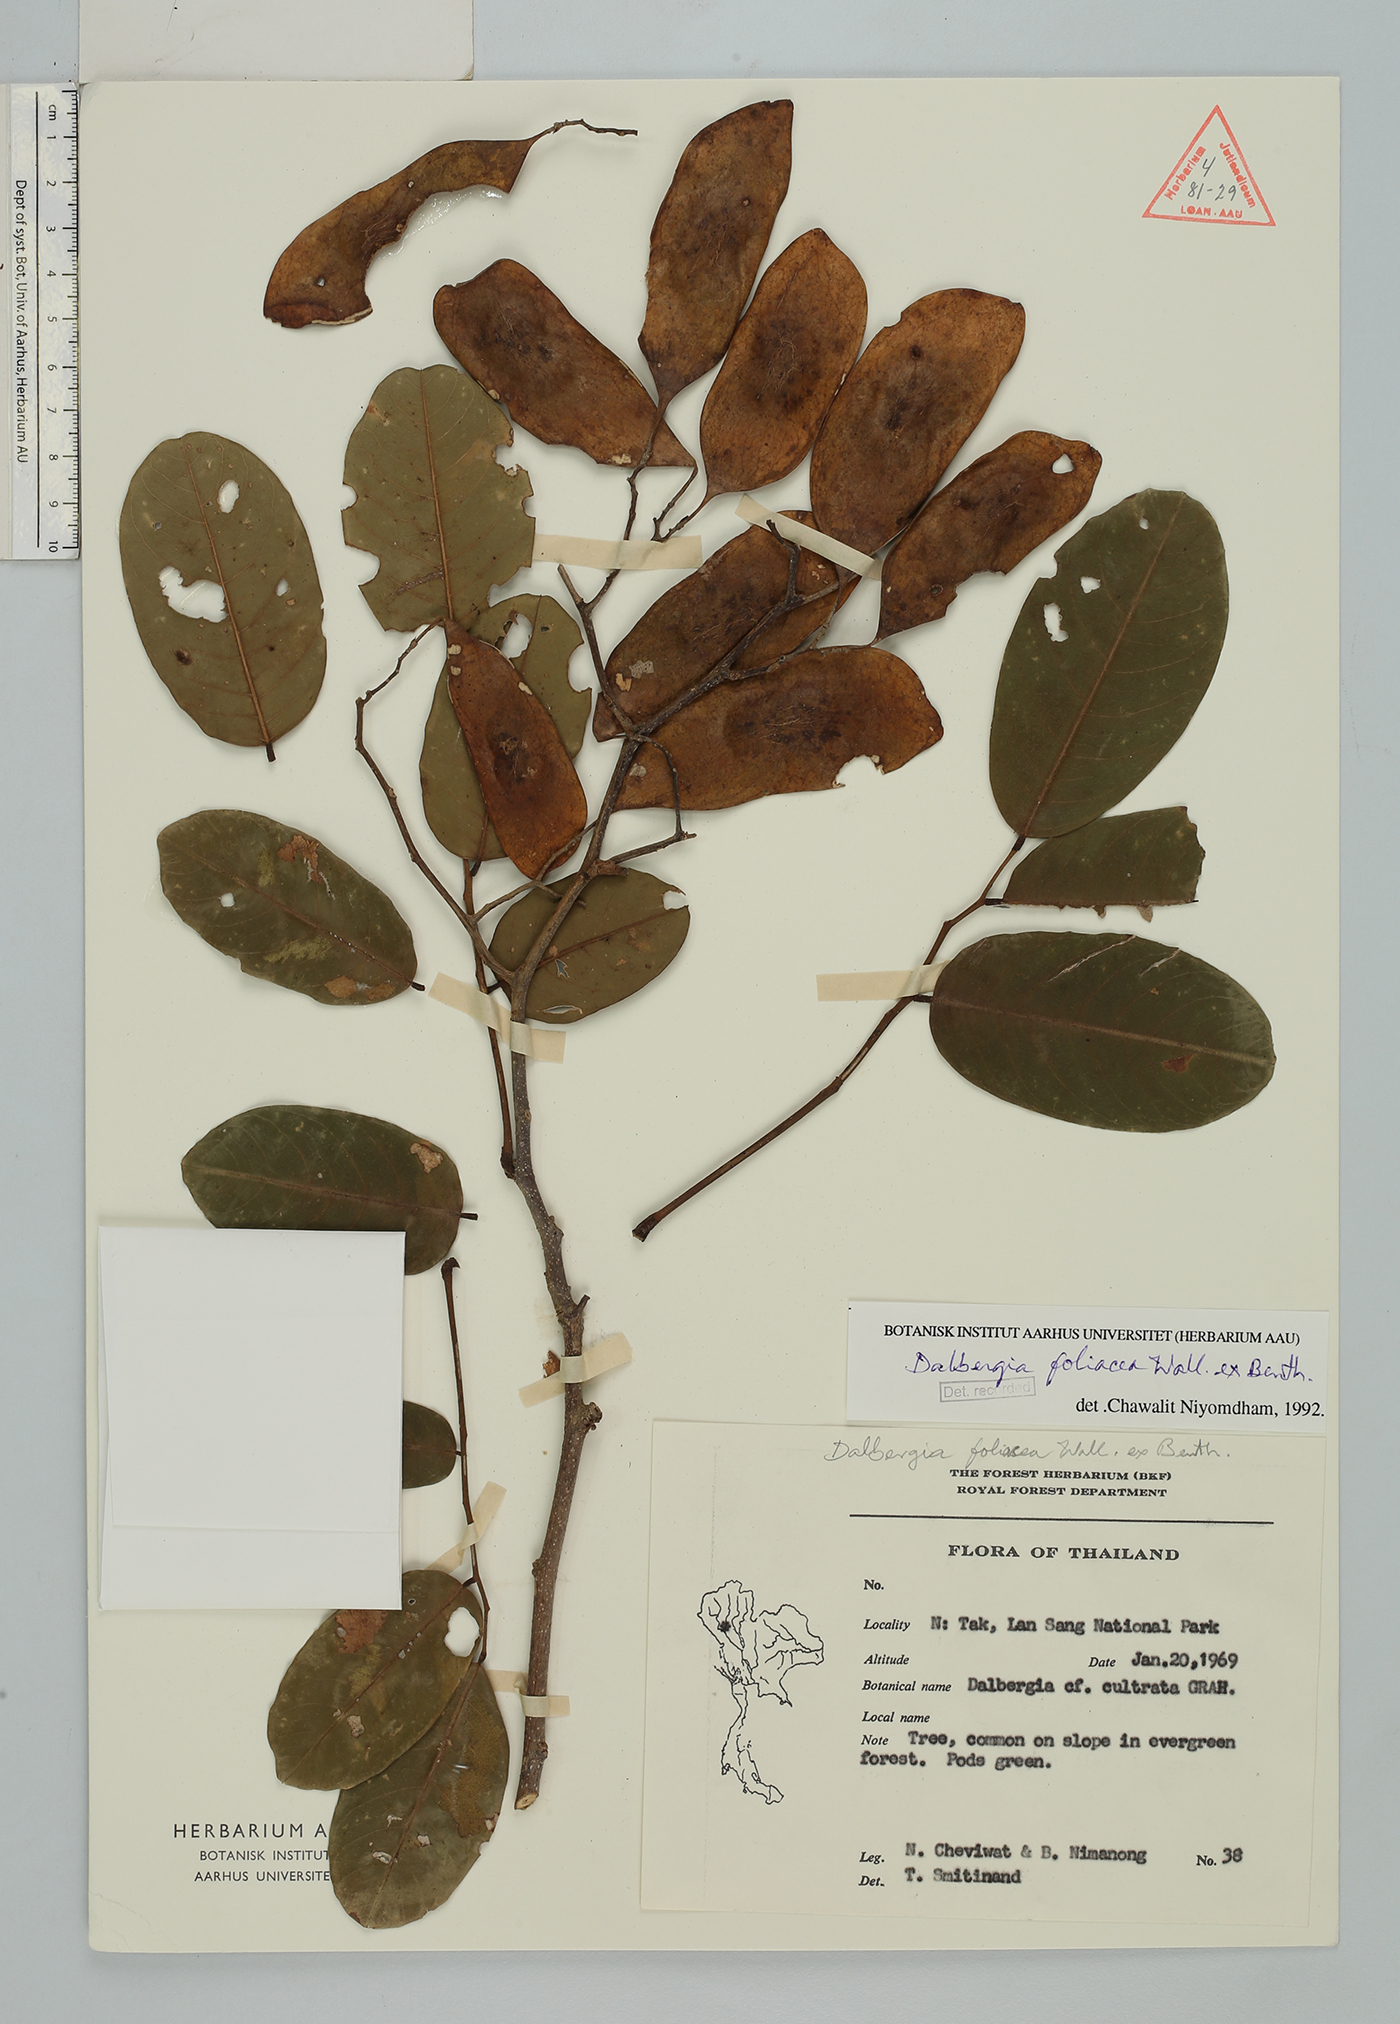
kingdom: Plantae
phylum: Tracheophyta
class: Magnoliopsida
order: Fabales
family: Fabaceae
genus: Dalbergia
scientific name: Dalbergia foliosa
